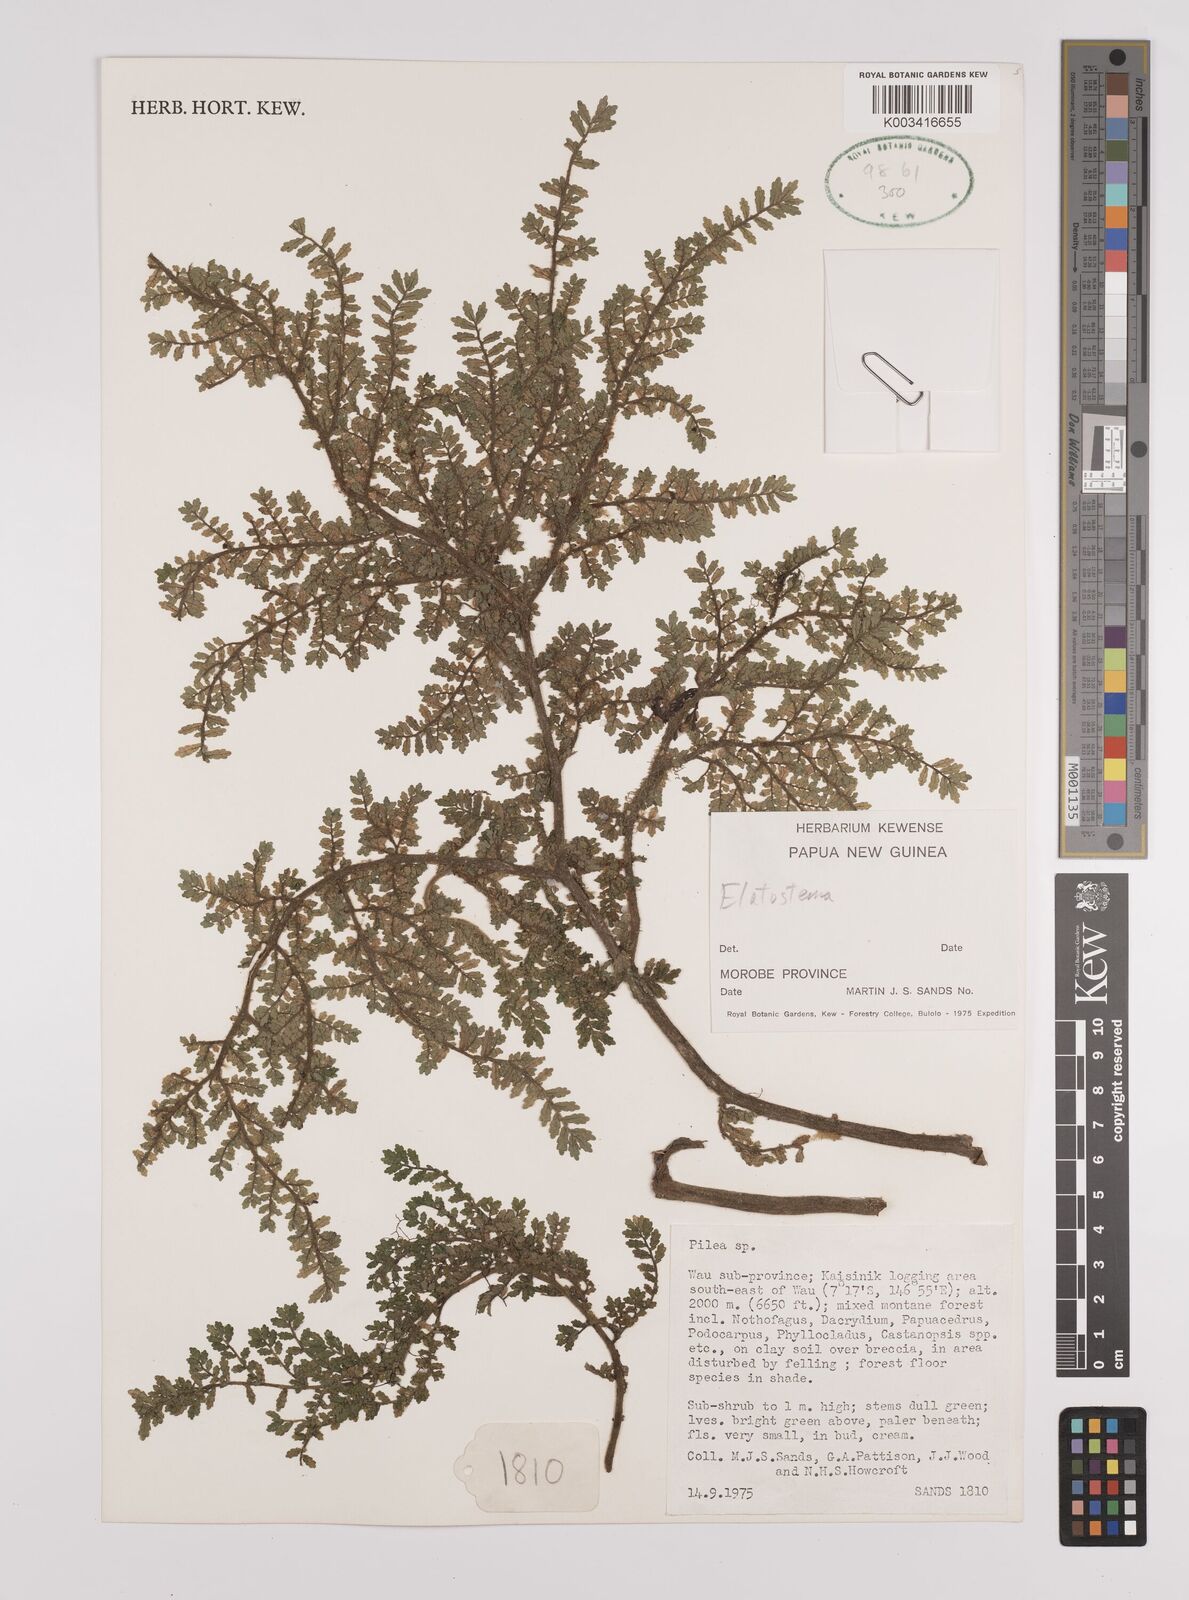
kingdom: Plantae
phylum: Tracheophyta
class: Magnoliopsida
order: Rosales
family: Urticaceae
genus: Elatostema
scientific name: Elatostema
